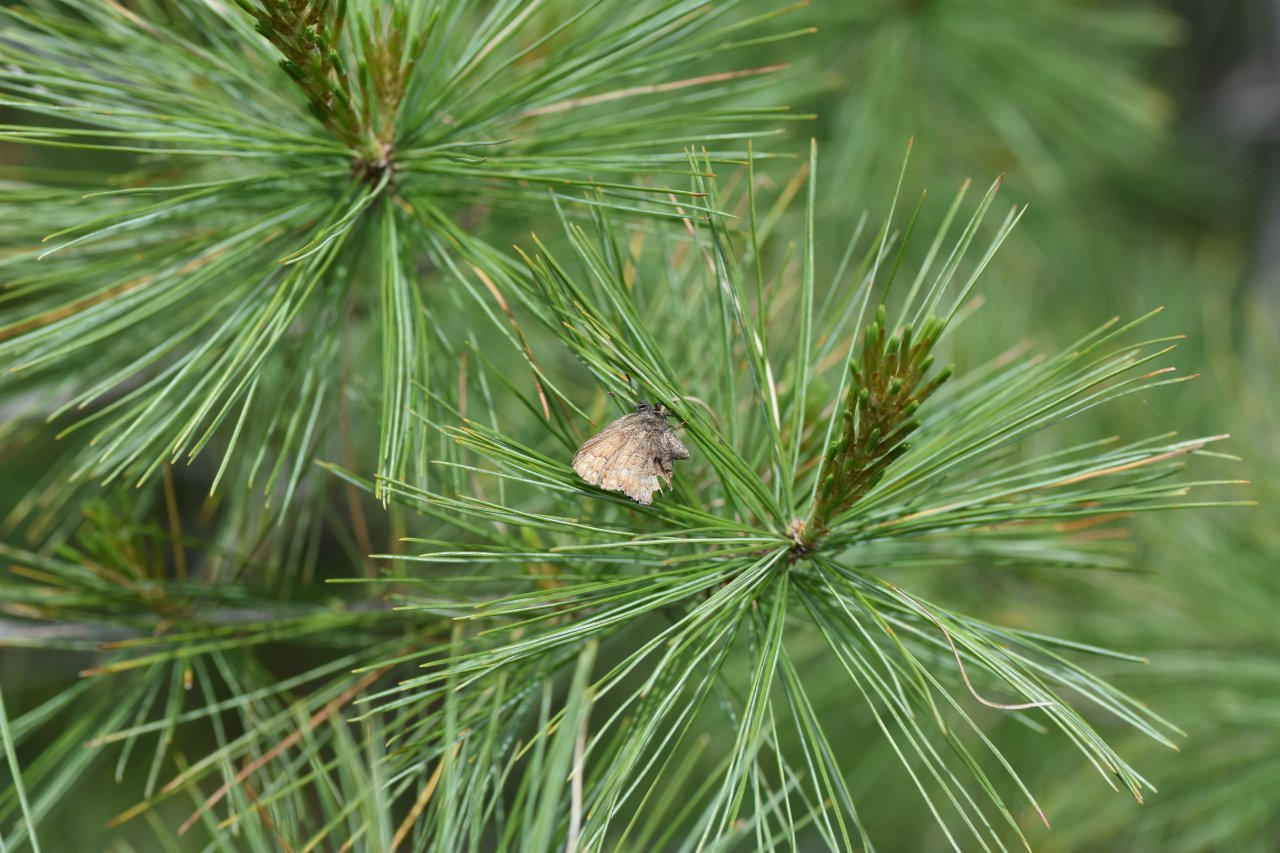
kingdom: Animalia
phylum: Arthropoda
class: Insecta
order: Lepidoptera
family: Lycaenidae
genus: Incisalia
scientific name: Incisalia niphon
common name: Eastern Pine Elfin
